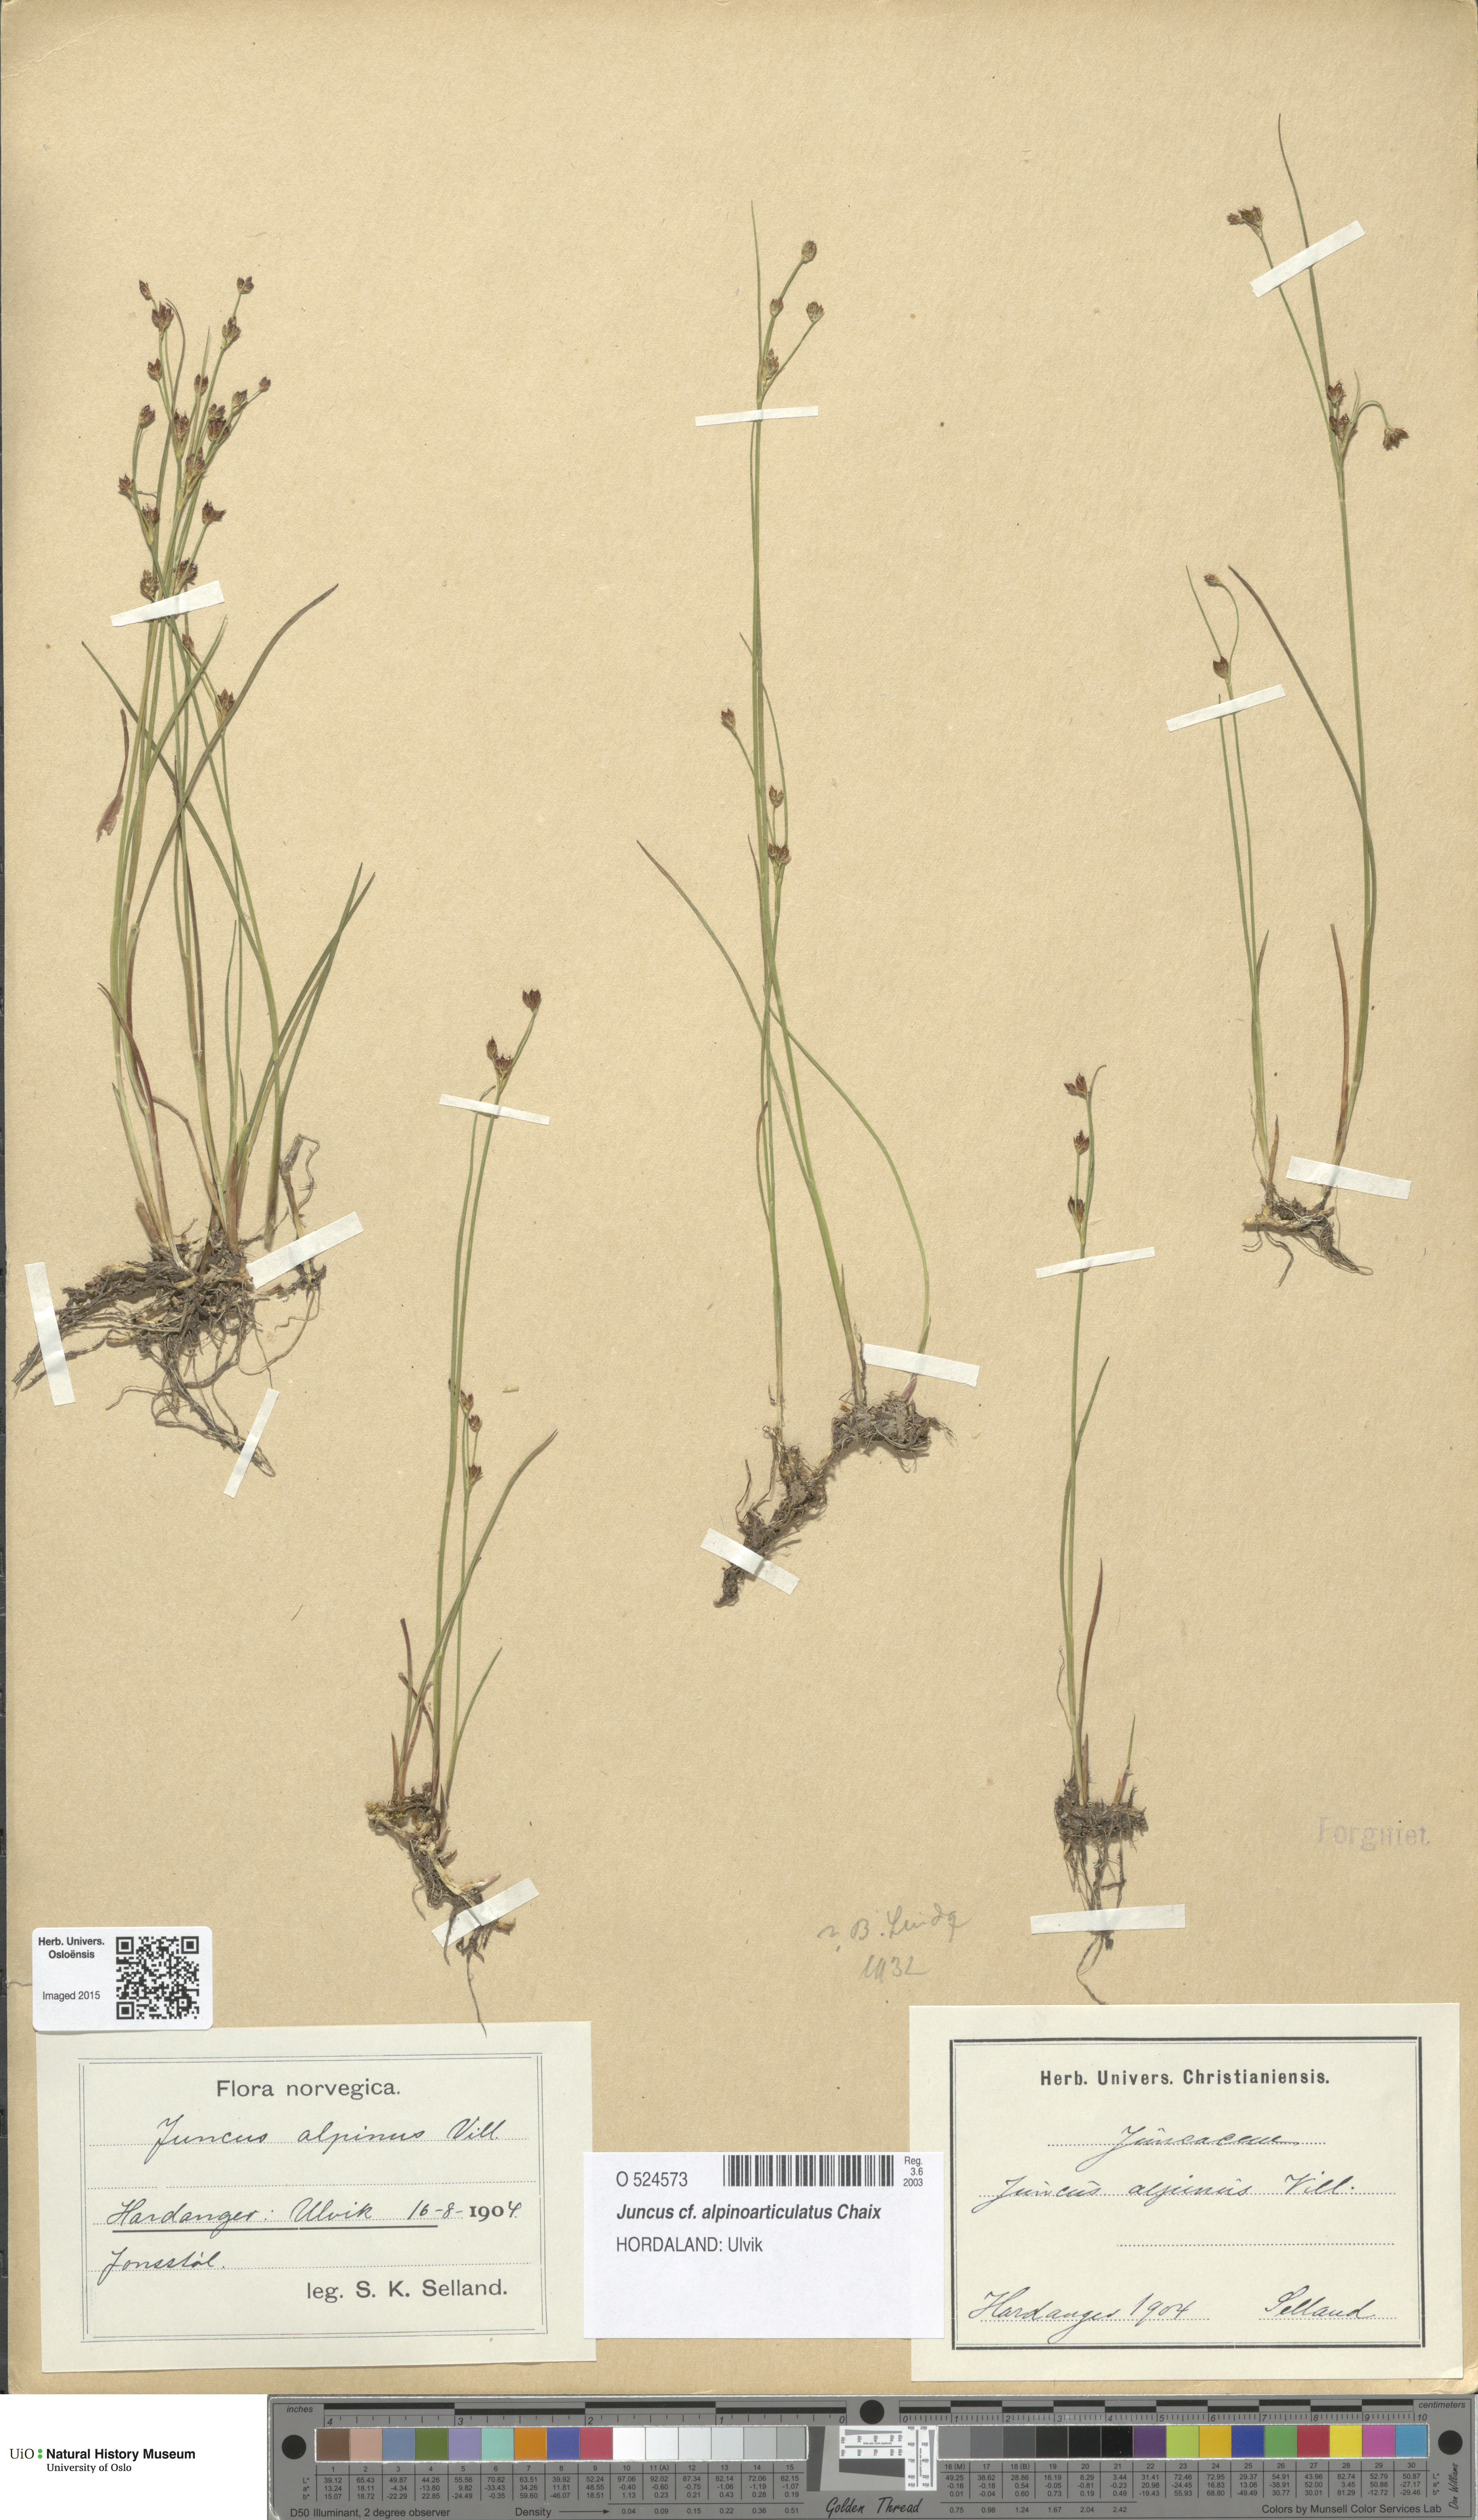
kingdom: Plantae
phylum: Tracheophyta
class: Liliopsida
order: Poales
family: Juncaceae
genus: Juncus
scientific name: Juncus alpinoarticulatus
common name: Alpine rush
